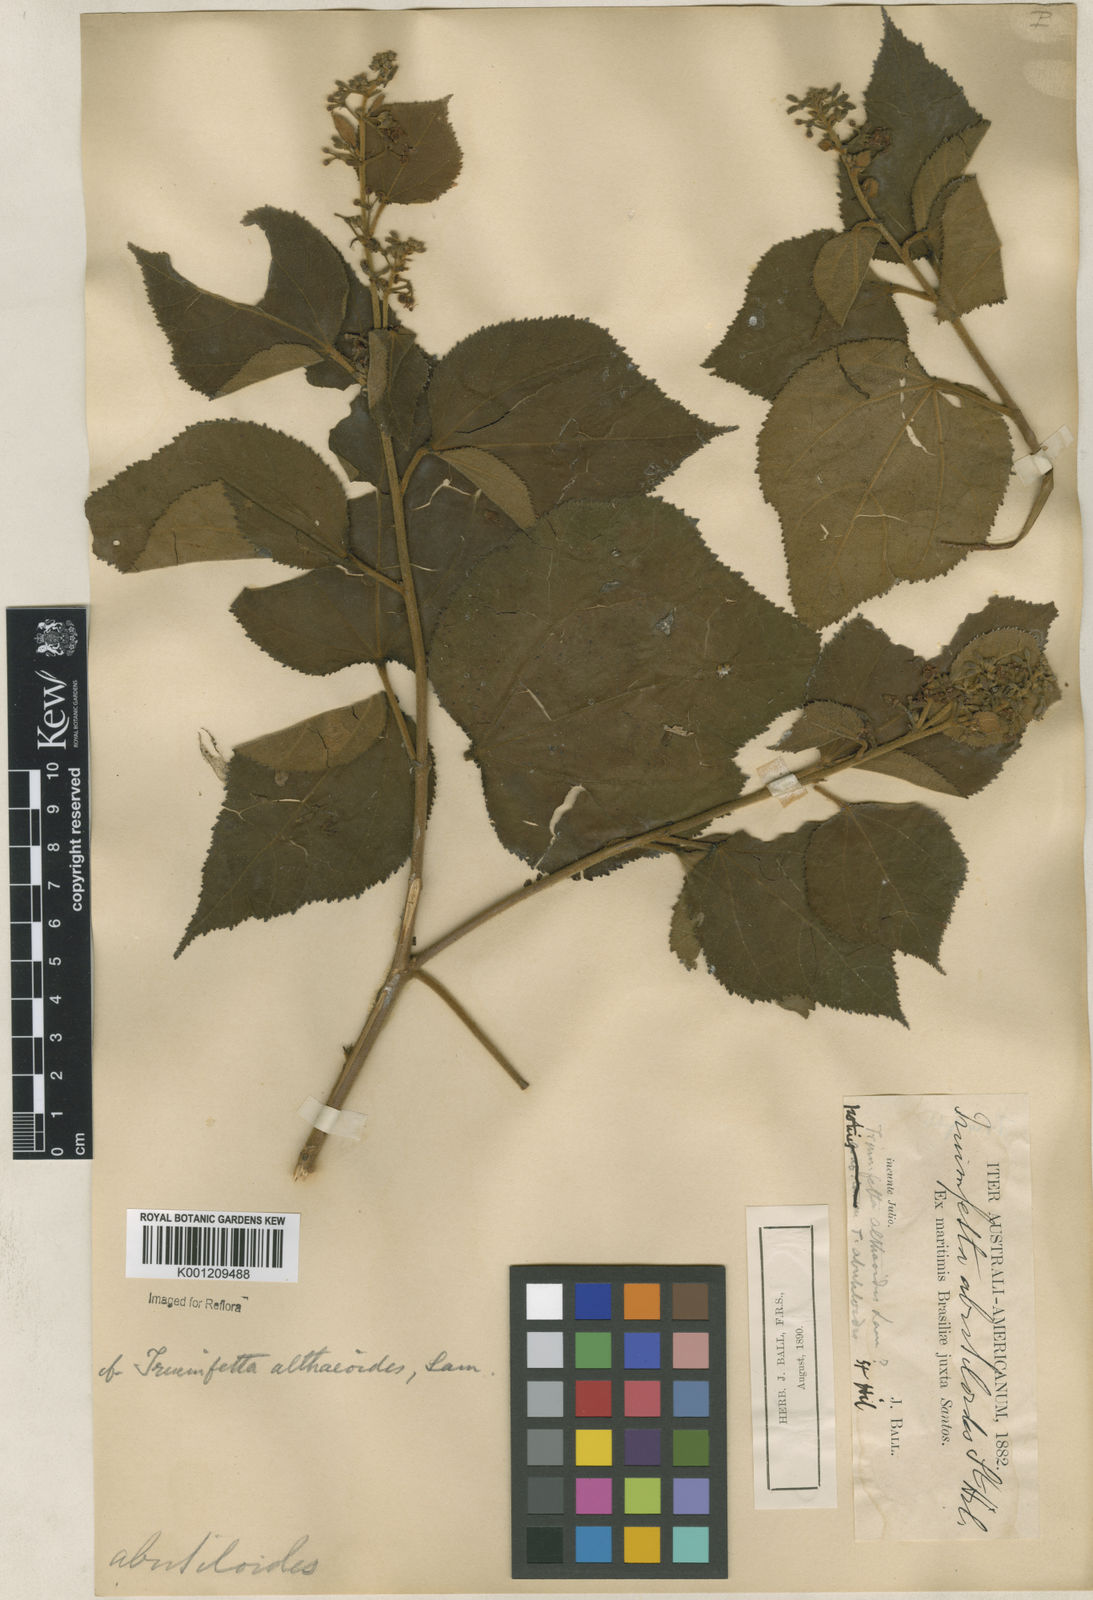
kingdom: Plantae
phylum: Tracheophyta
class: Magnoliopsida
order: Malvales
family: Malvaceae
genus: Triumfetta
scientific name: Triumfetta althaeoides
